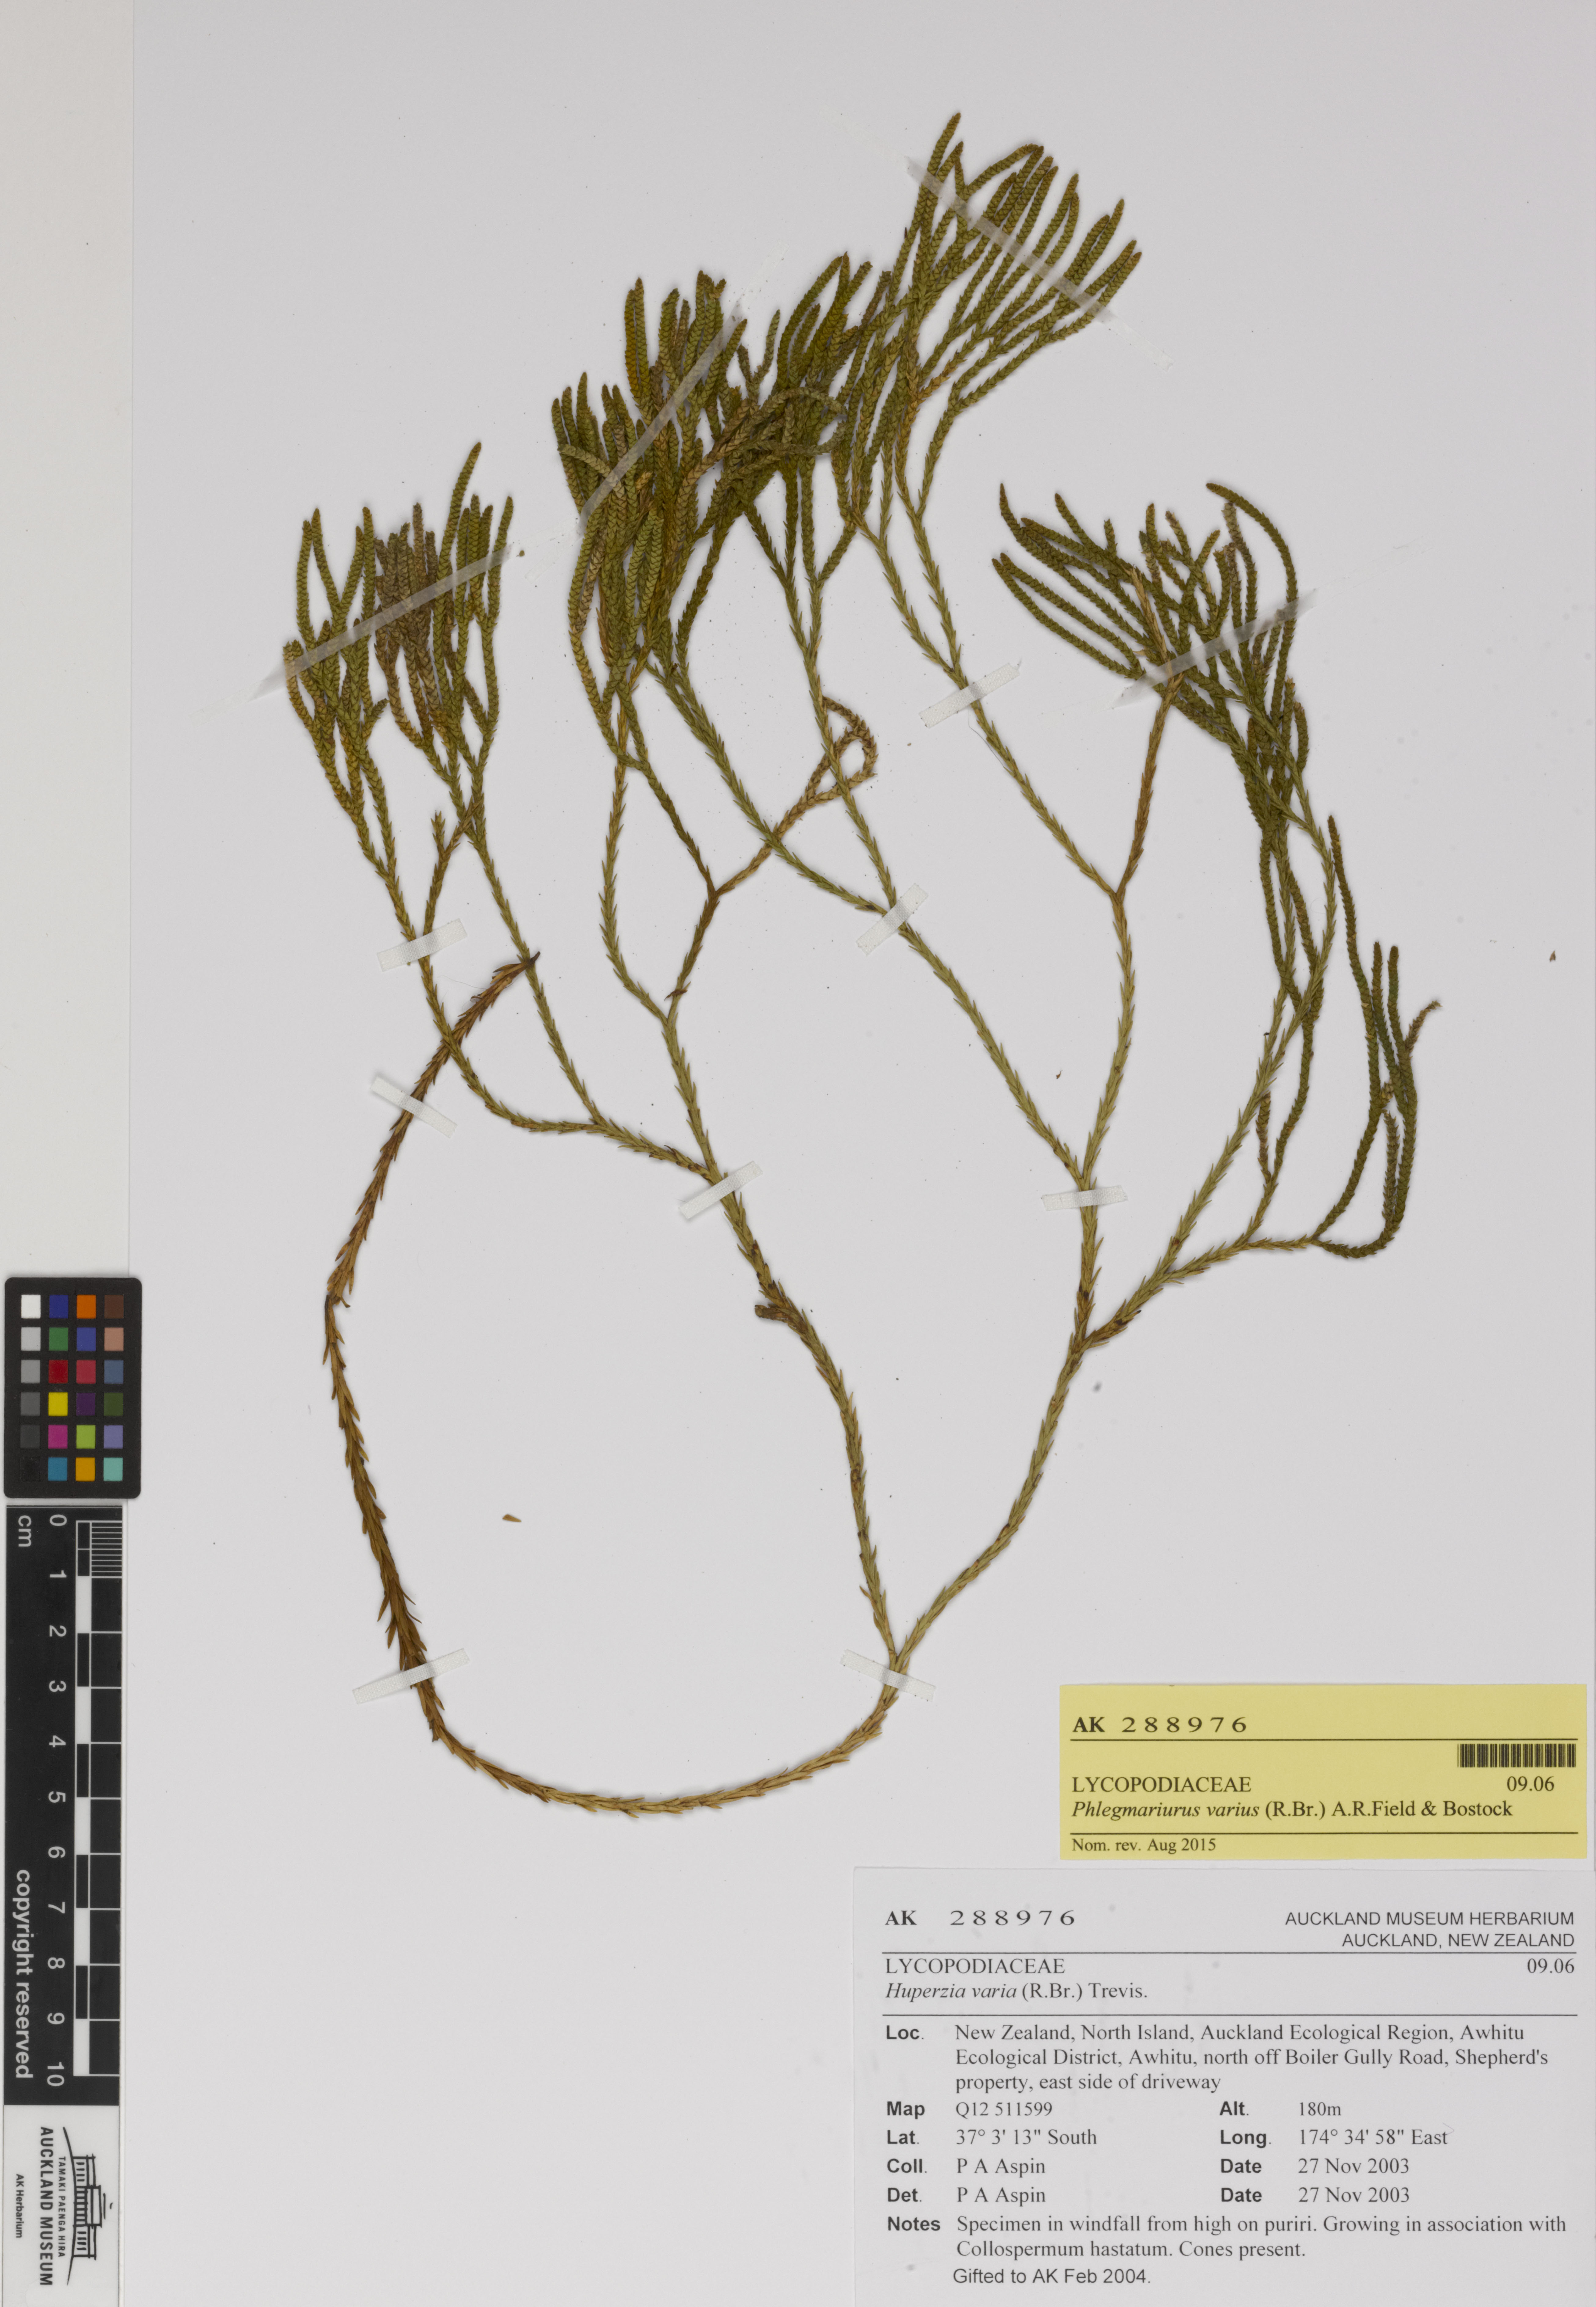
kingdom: Plantae
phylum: Tracheophyta
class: Lycopodiopsida
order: Lycopodiales
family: Lycopodiaceae
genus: Phlegmariurus
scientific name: Phlegmariurus billardierei
